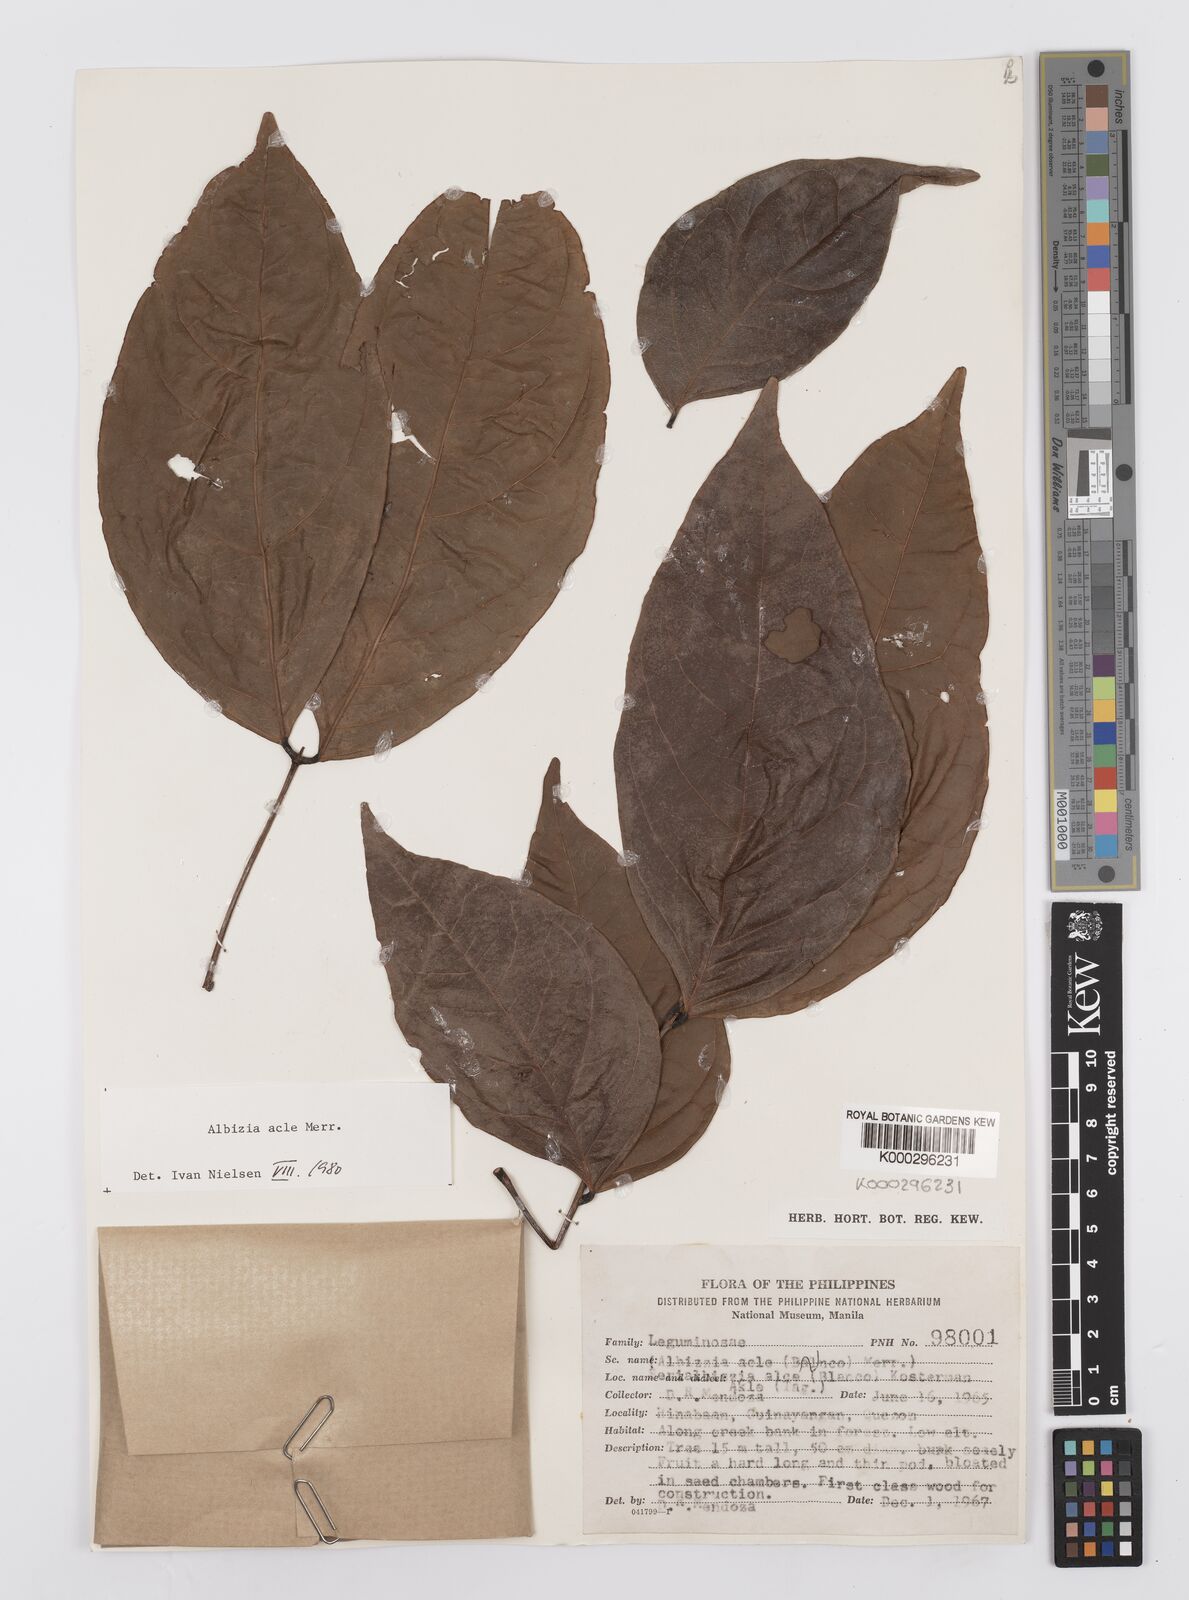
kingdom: Plantae
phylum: Tracheophyta
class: Magnoliopsida
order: Fabales
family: Fabaceae
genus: Albizia
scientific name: Albizia acle
